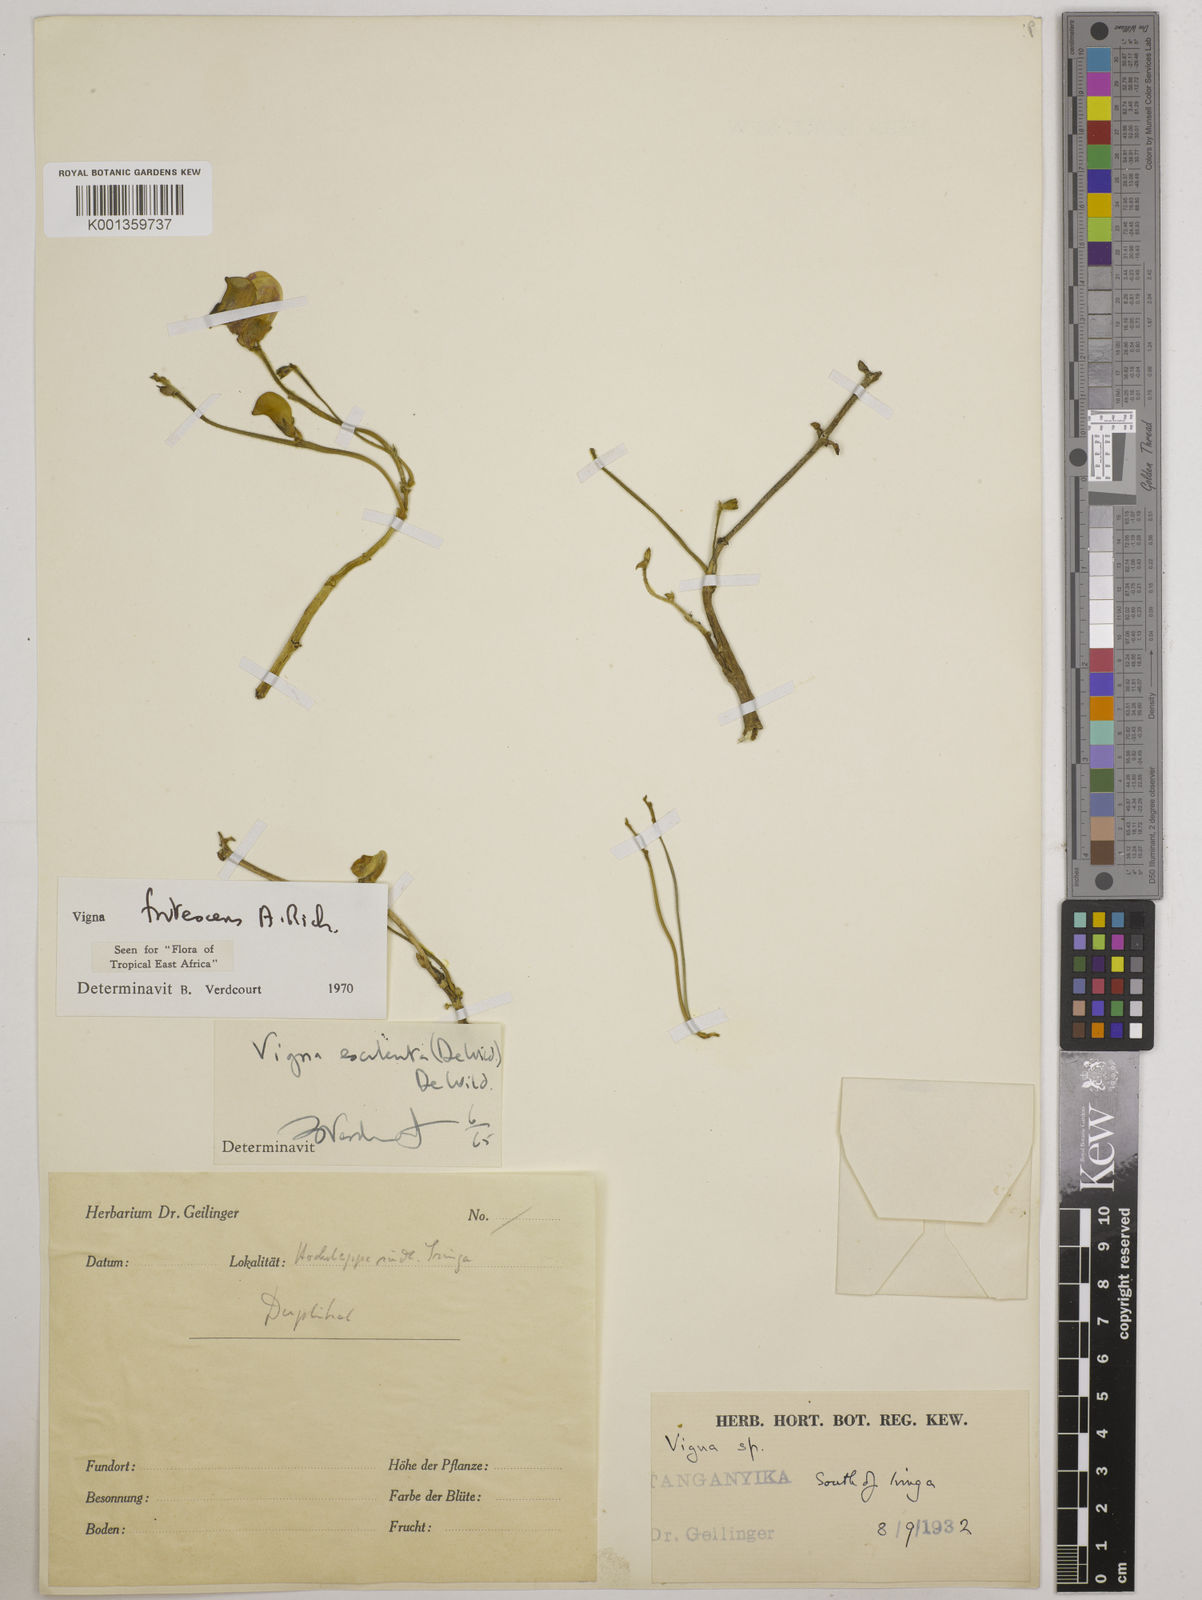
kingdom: Plantae
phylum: Tracheophyta
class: Magnoliopsida
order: Fabales
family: Fabaceae
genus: Vigna
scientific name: Vigna frutescens
